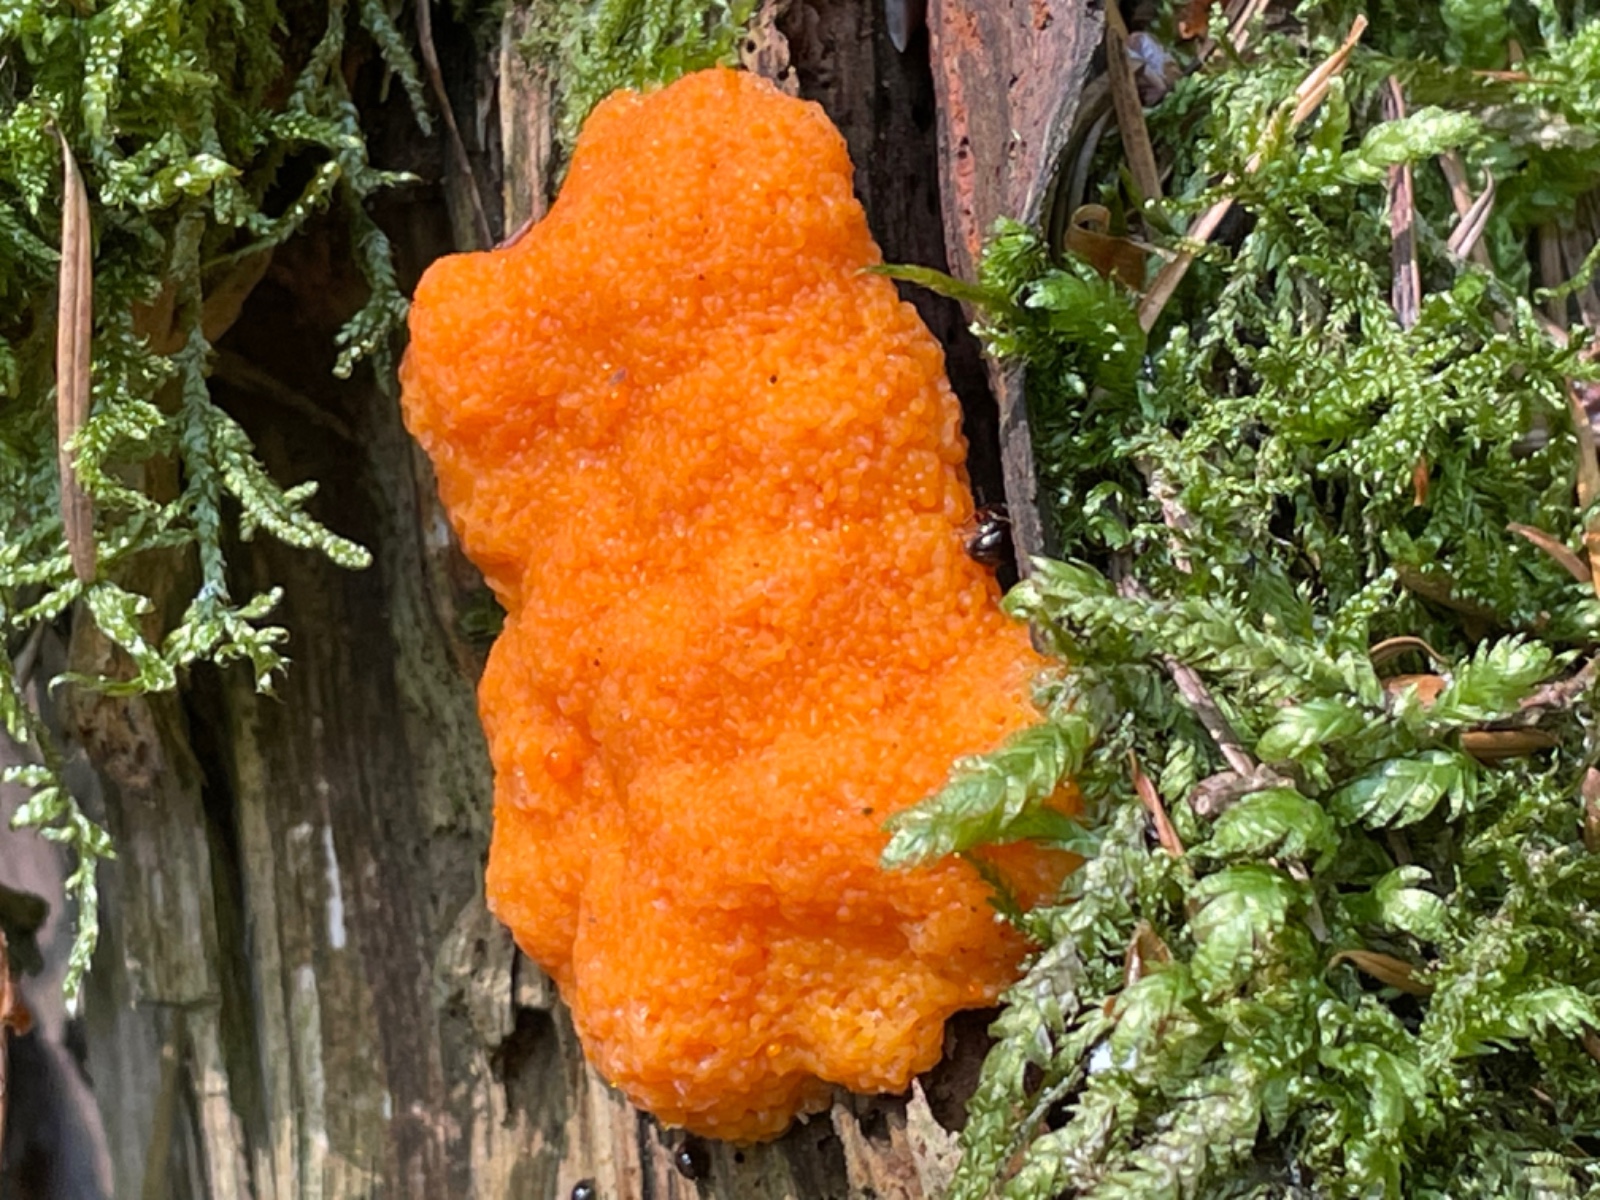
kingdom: Protozoa
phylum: Mycetozoa
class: Myxomycetes
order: Cribrariales
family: Tubiferaceae
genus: Tubifera
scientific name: Tubifera ferruginosa
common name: kanel-støvrør
